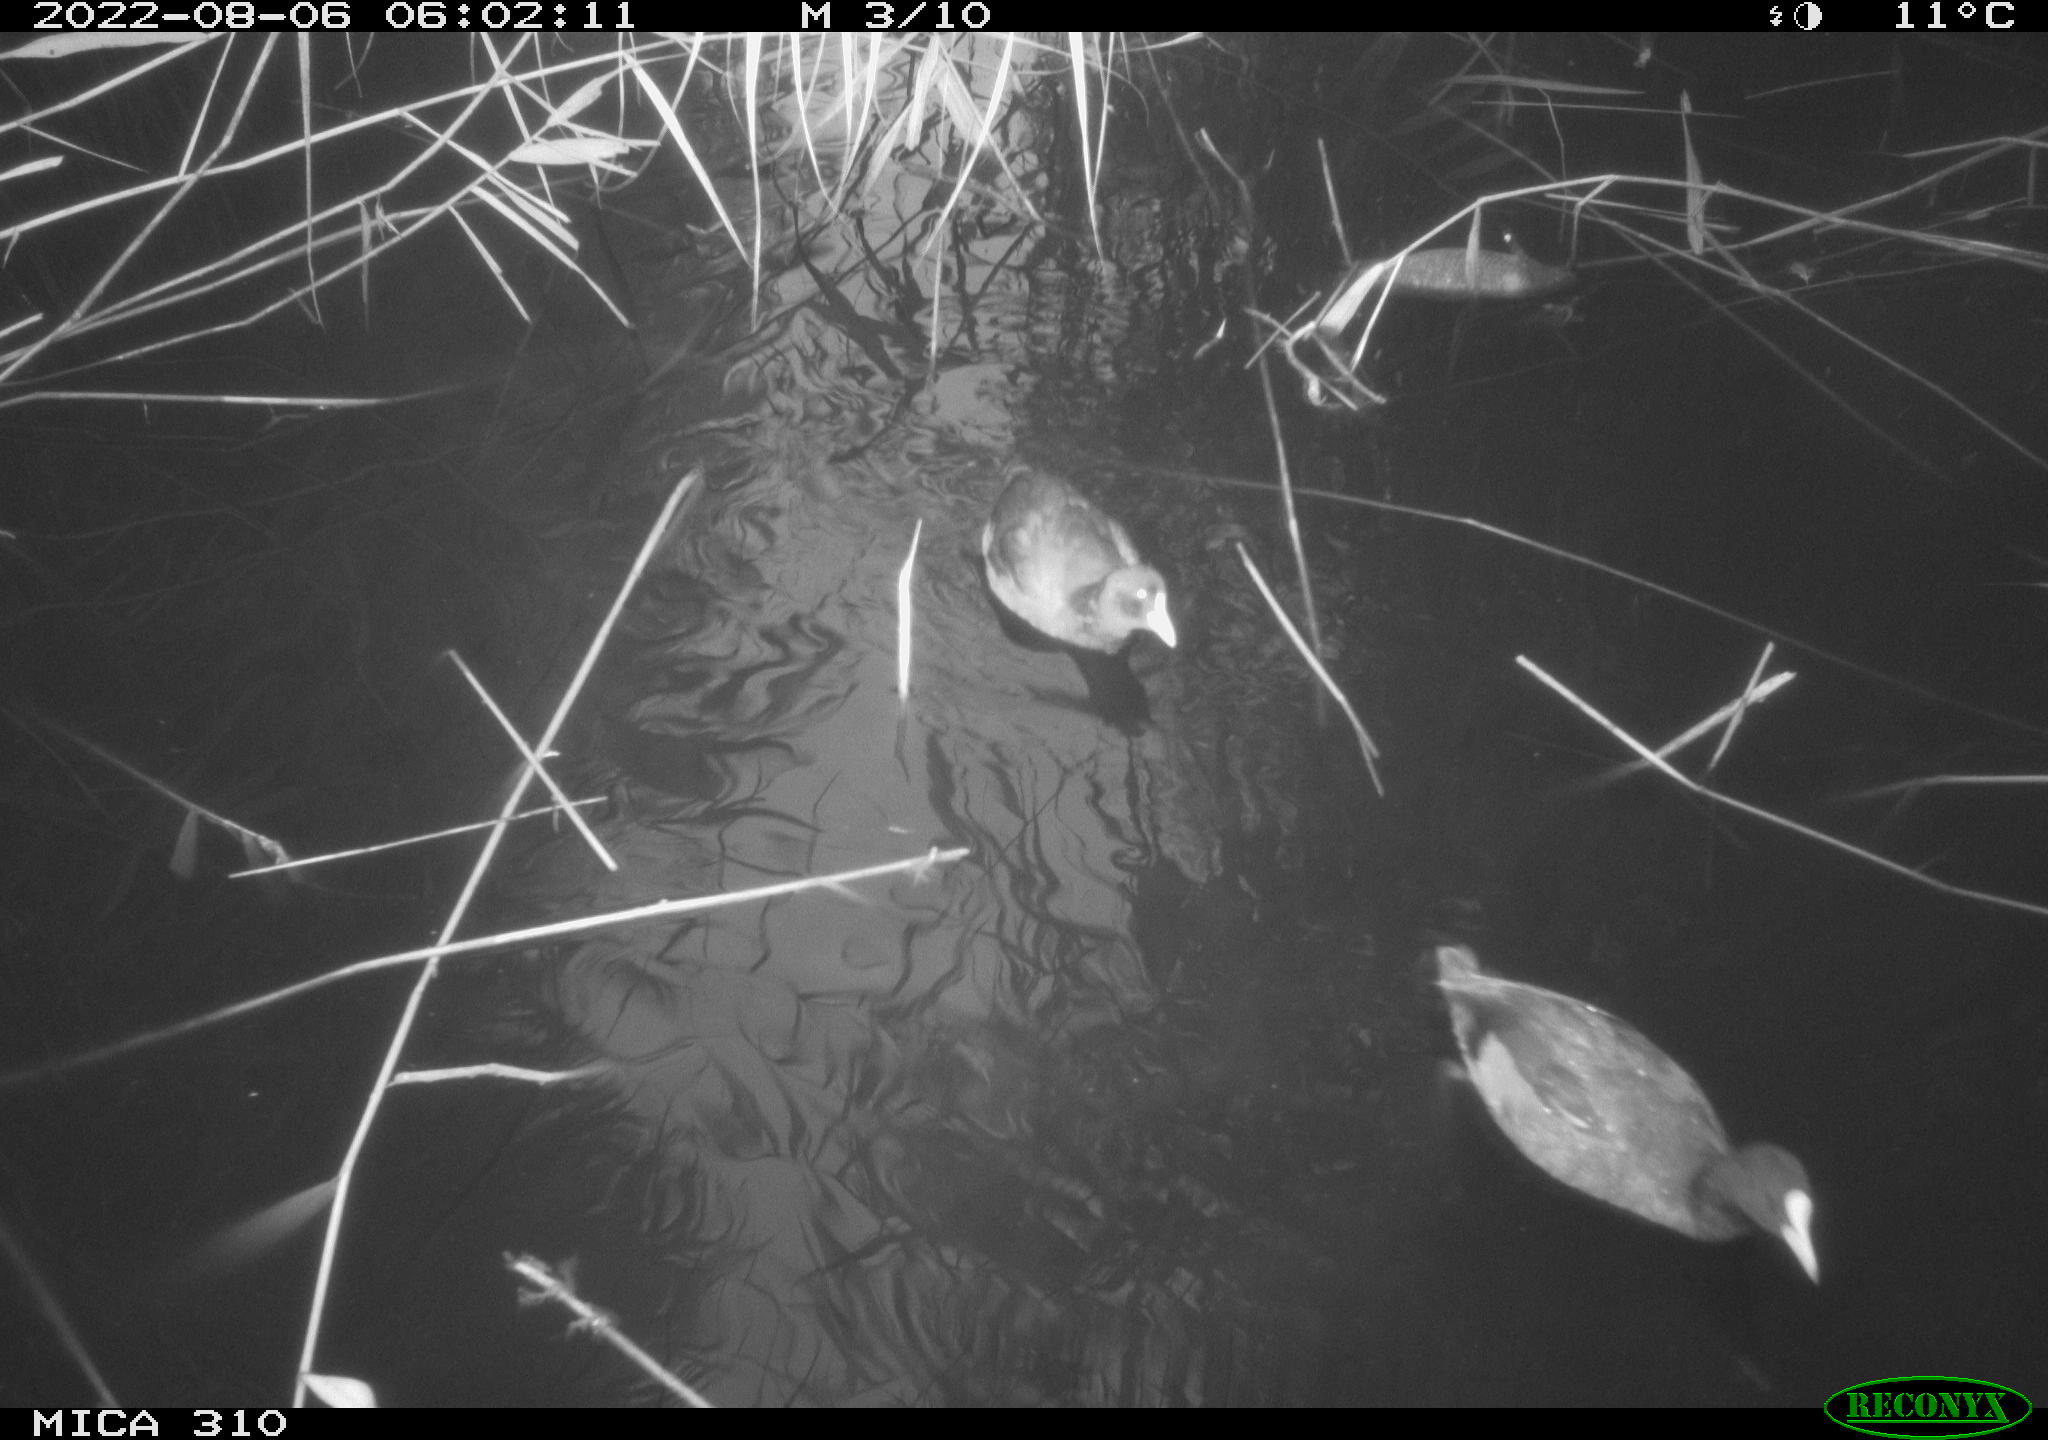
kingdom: Animalia
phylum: Chordata
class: Aves
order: Gruiformes
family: Rallidae
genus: Gallinula
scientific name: Gallinula chloropus
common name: Common moorhen
